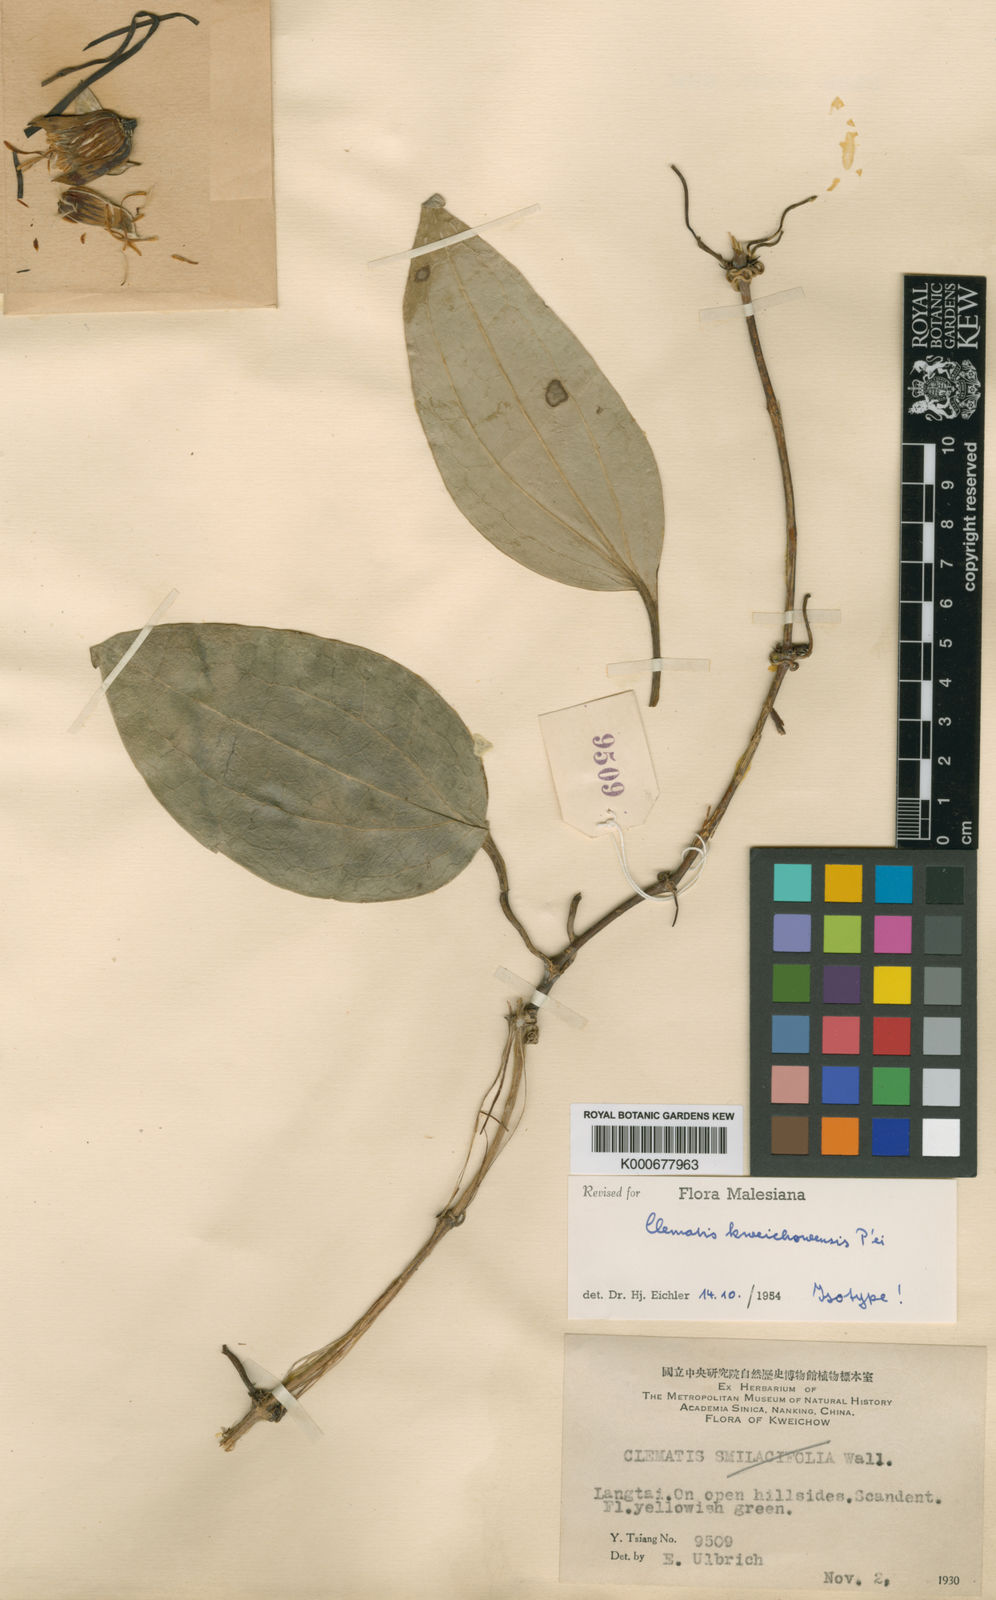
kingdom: Plantae
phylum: Tracheophyta
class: Magnoliopsida
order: Ranunculales
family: Ranunculaceae
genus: Clematis
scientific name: Clematis
